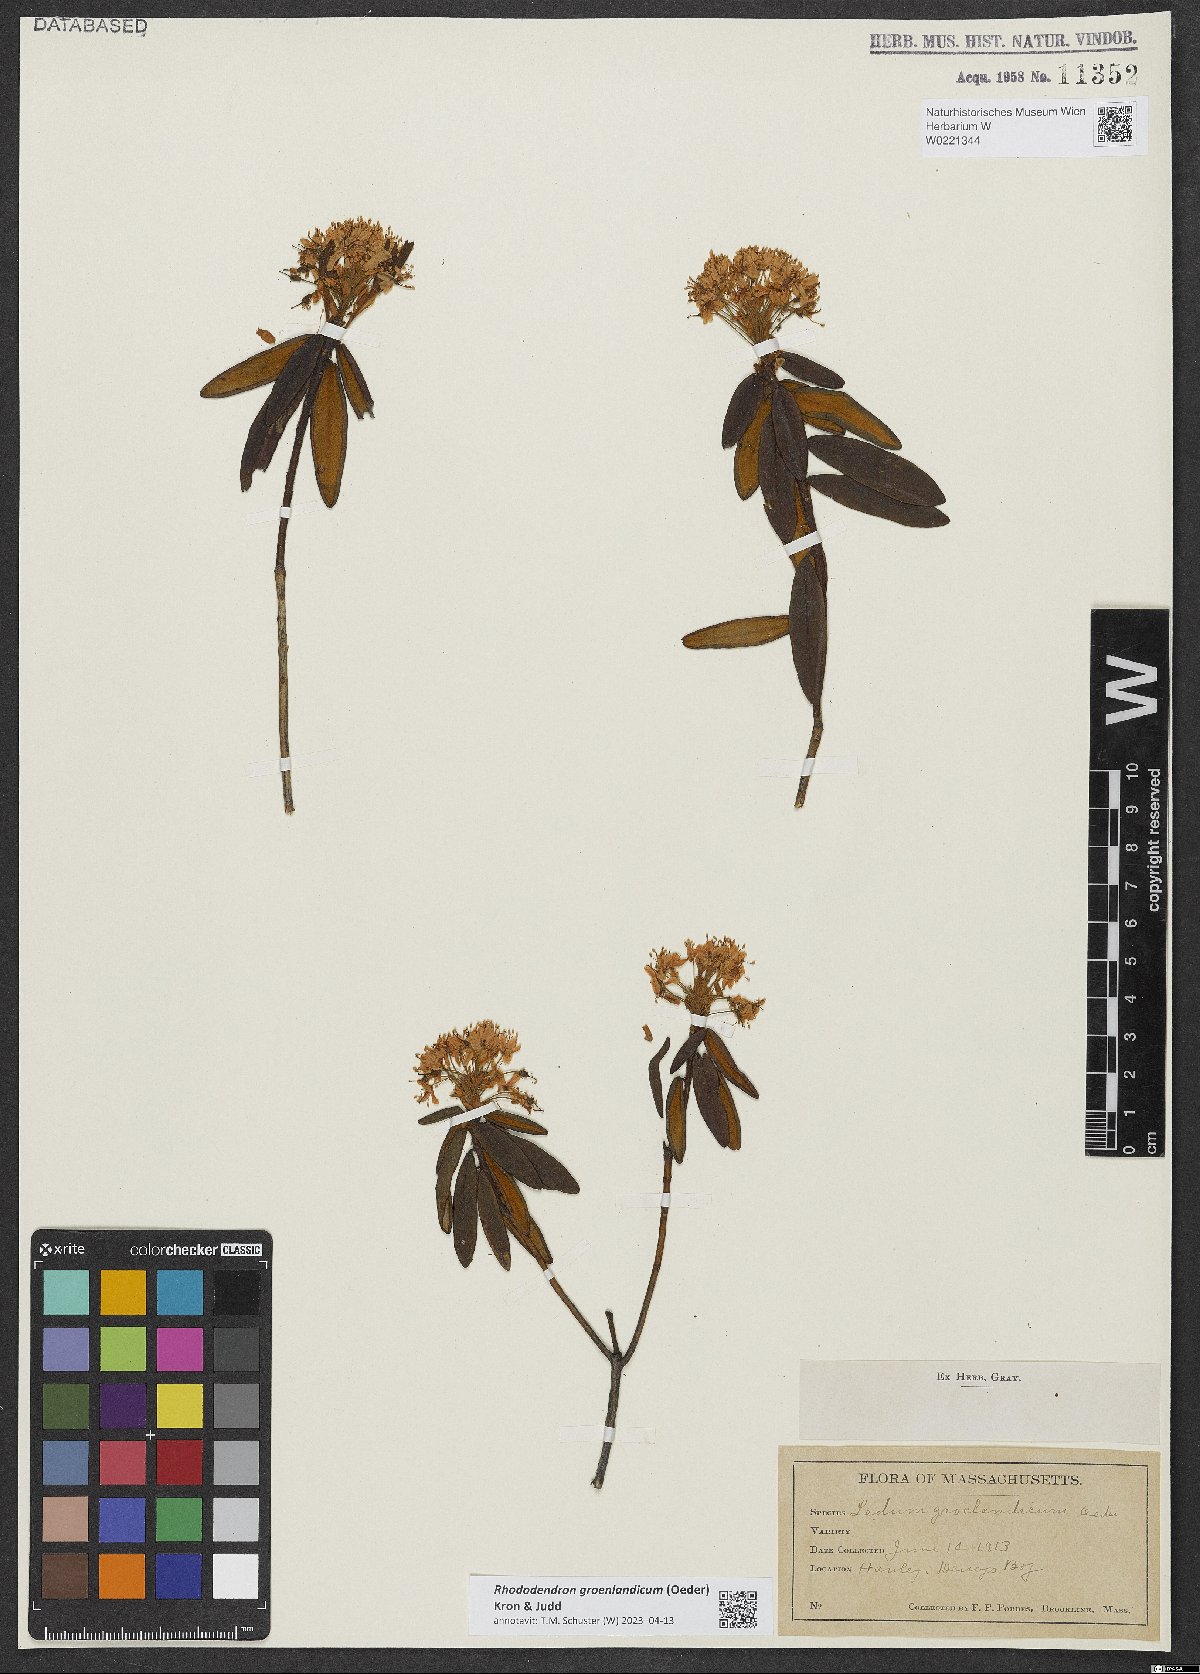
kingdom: Plantae
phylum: Tracheophyta
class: Magnoliopsida
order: Ericales
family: Ericaceae
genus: Rhododendron
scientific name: Rhododendron groenlandicum
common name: Bog labrador tea
